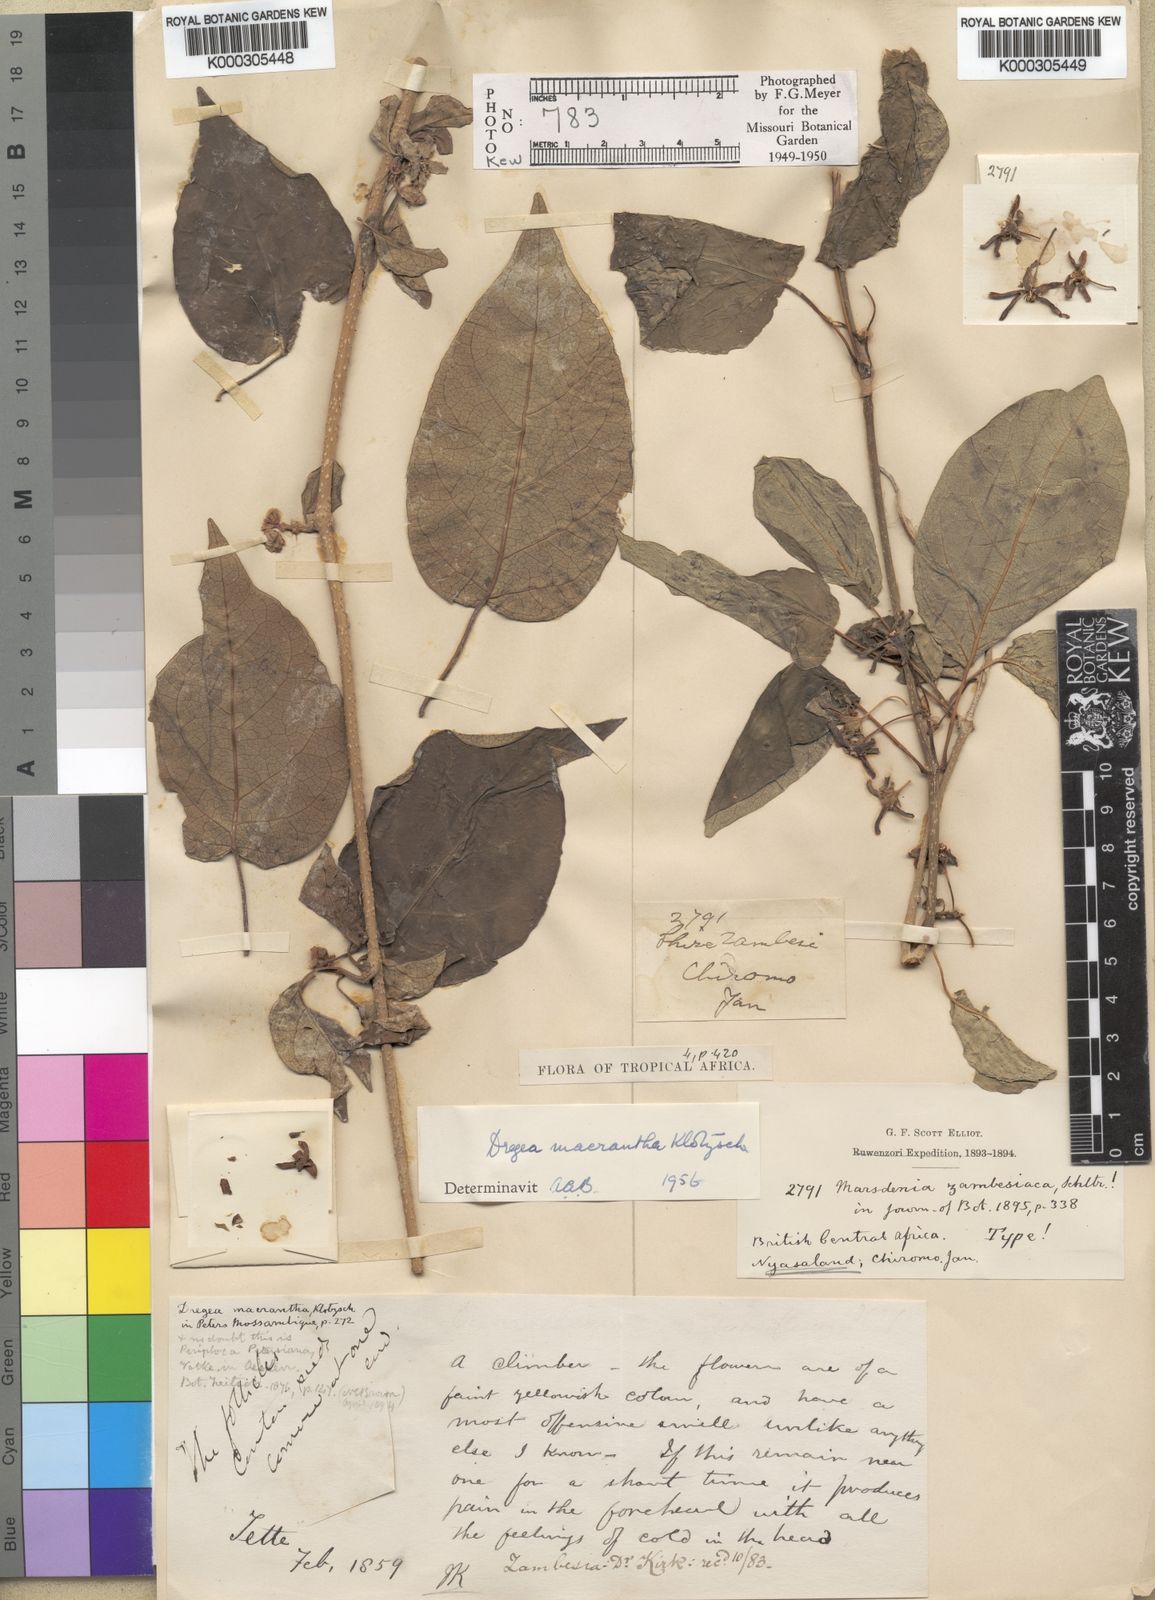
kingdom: Plantae
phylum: Tracheophyta
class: Magnoliopsida
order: Gentianales
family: Apocynaceae
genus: Stephanotis
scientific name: Stephanotis macrantha
